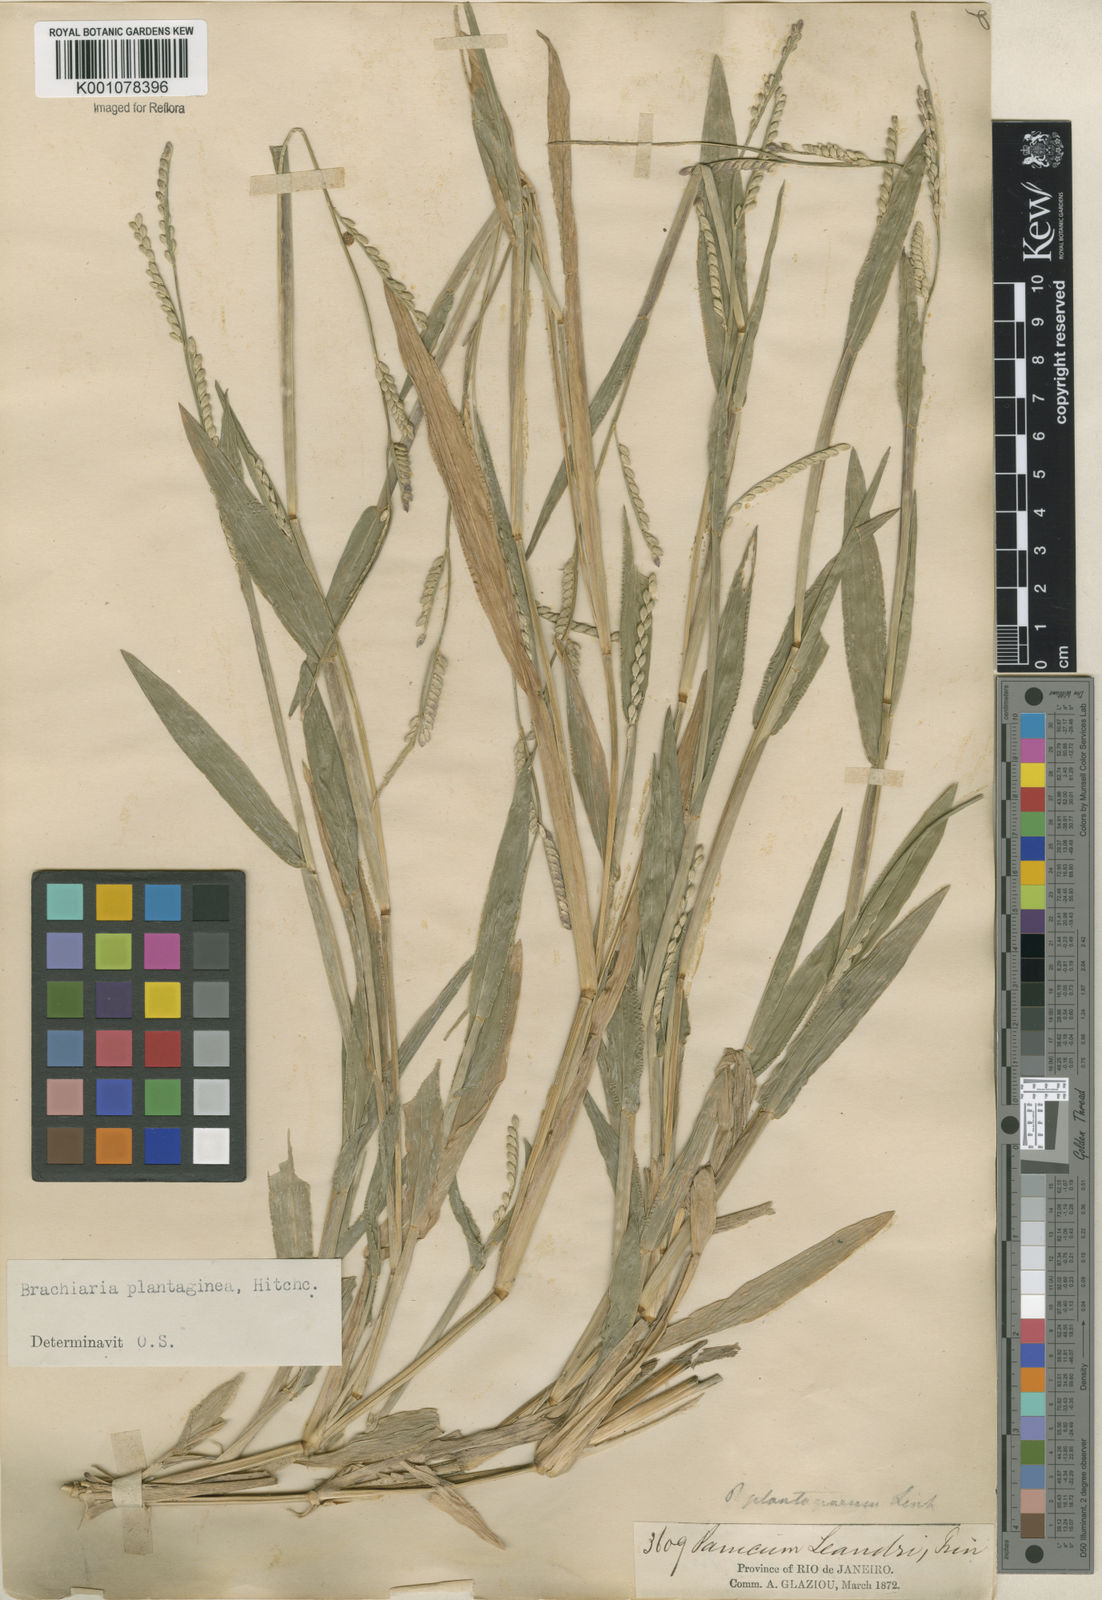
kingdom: Plantae
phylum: Tracheophyta
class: Liliopsida
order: Poales
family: Poaceae
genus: Urochloa
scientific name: Urochloa plantaginea
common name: Plantain signalgrass
